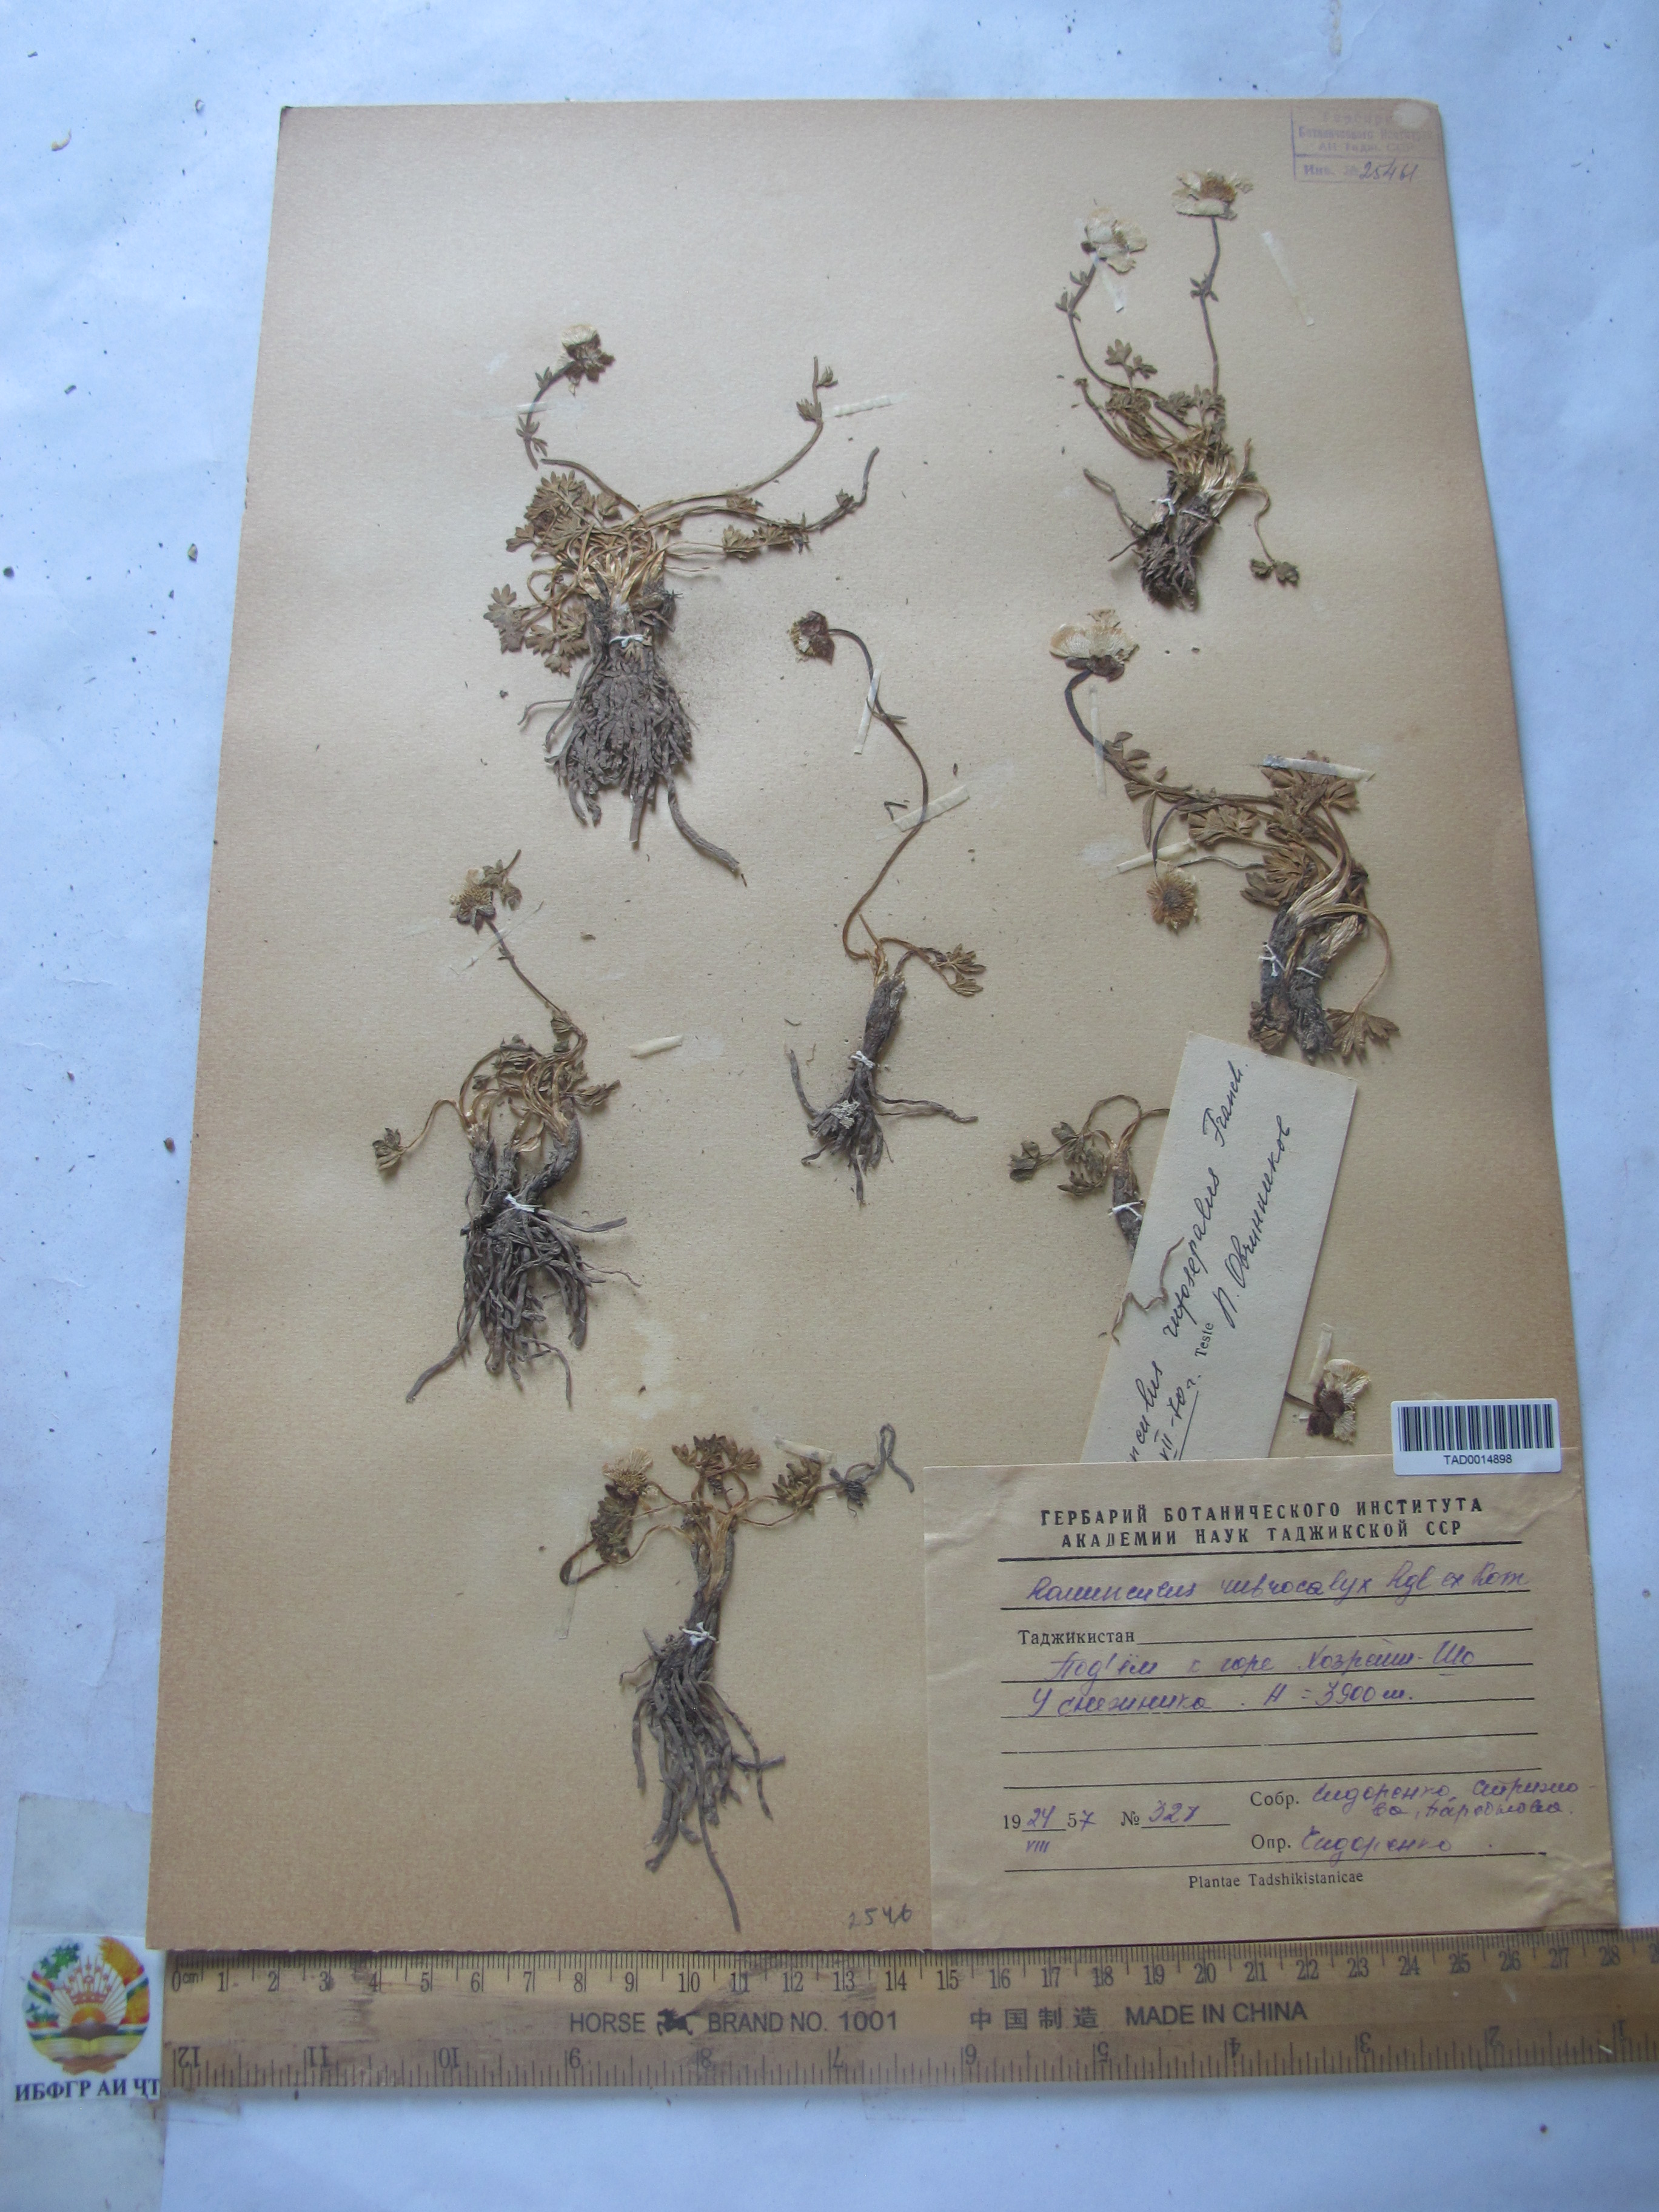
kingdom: Plantae
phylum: Tracheophyta
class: Magnoliopsida
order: Ranunculales
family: Ranunculaceae
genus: Ranunculus
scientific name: Ranunculus rubrocalyx
